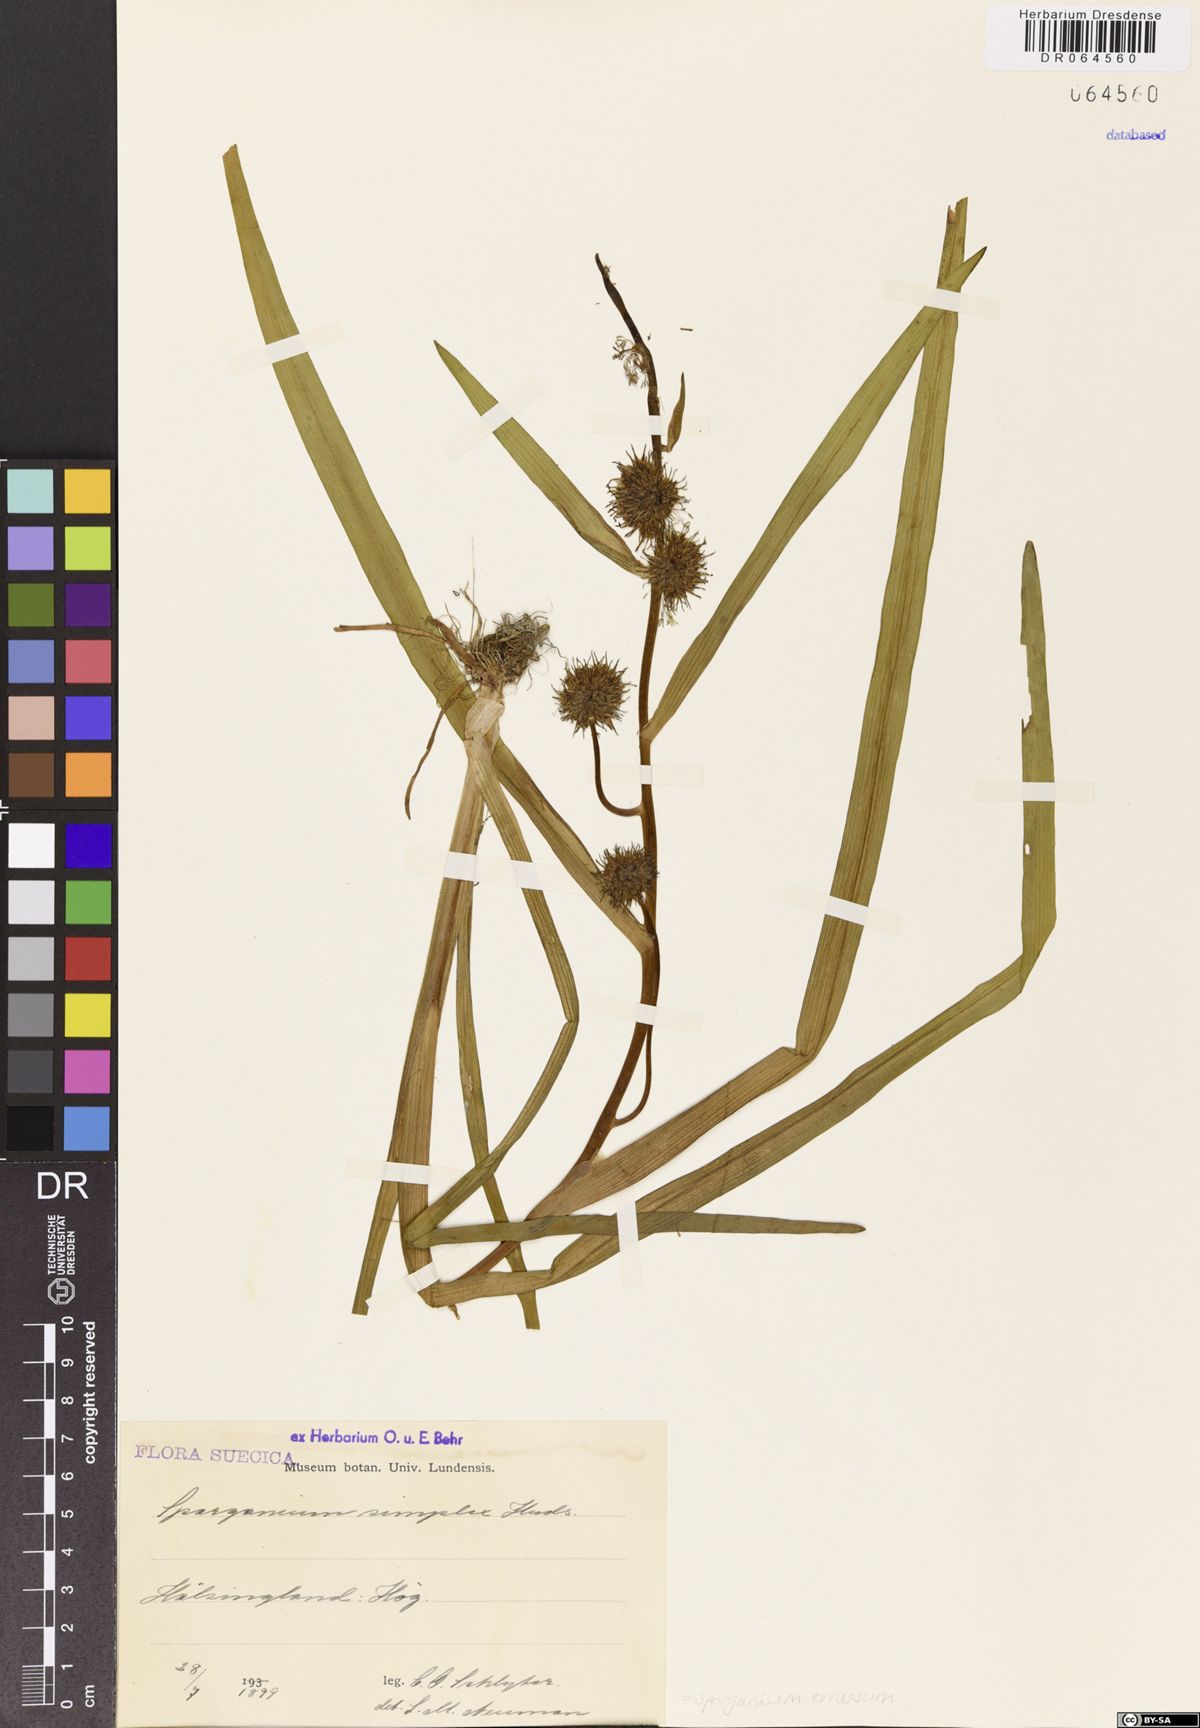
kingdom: Plantae
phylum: Tracheophyta
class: Liliopsida
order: Poales
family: Typhaceae
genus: Sparganium
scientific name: Sparganium emersum
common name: Unbranched bur-reed
